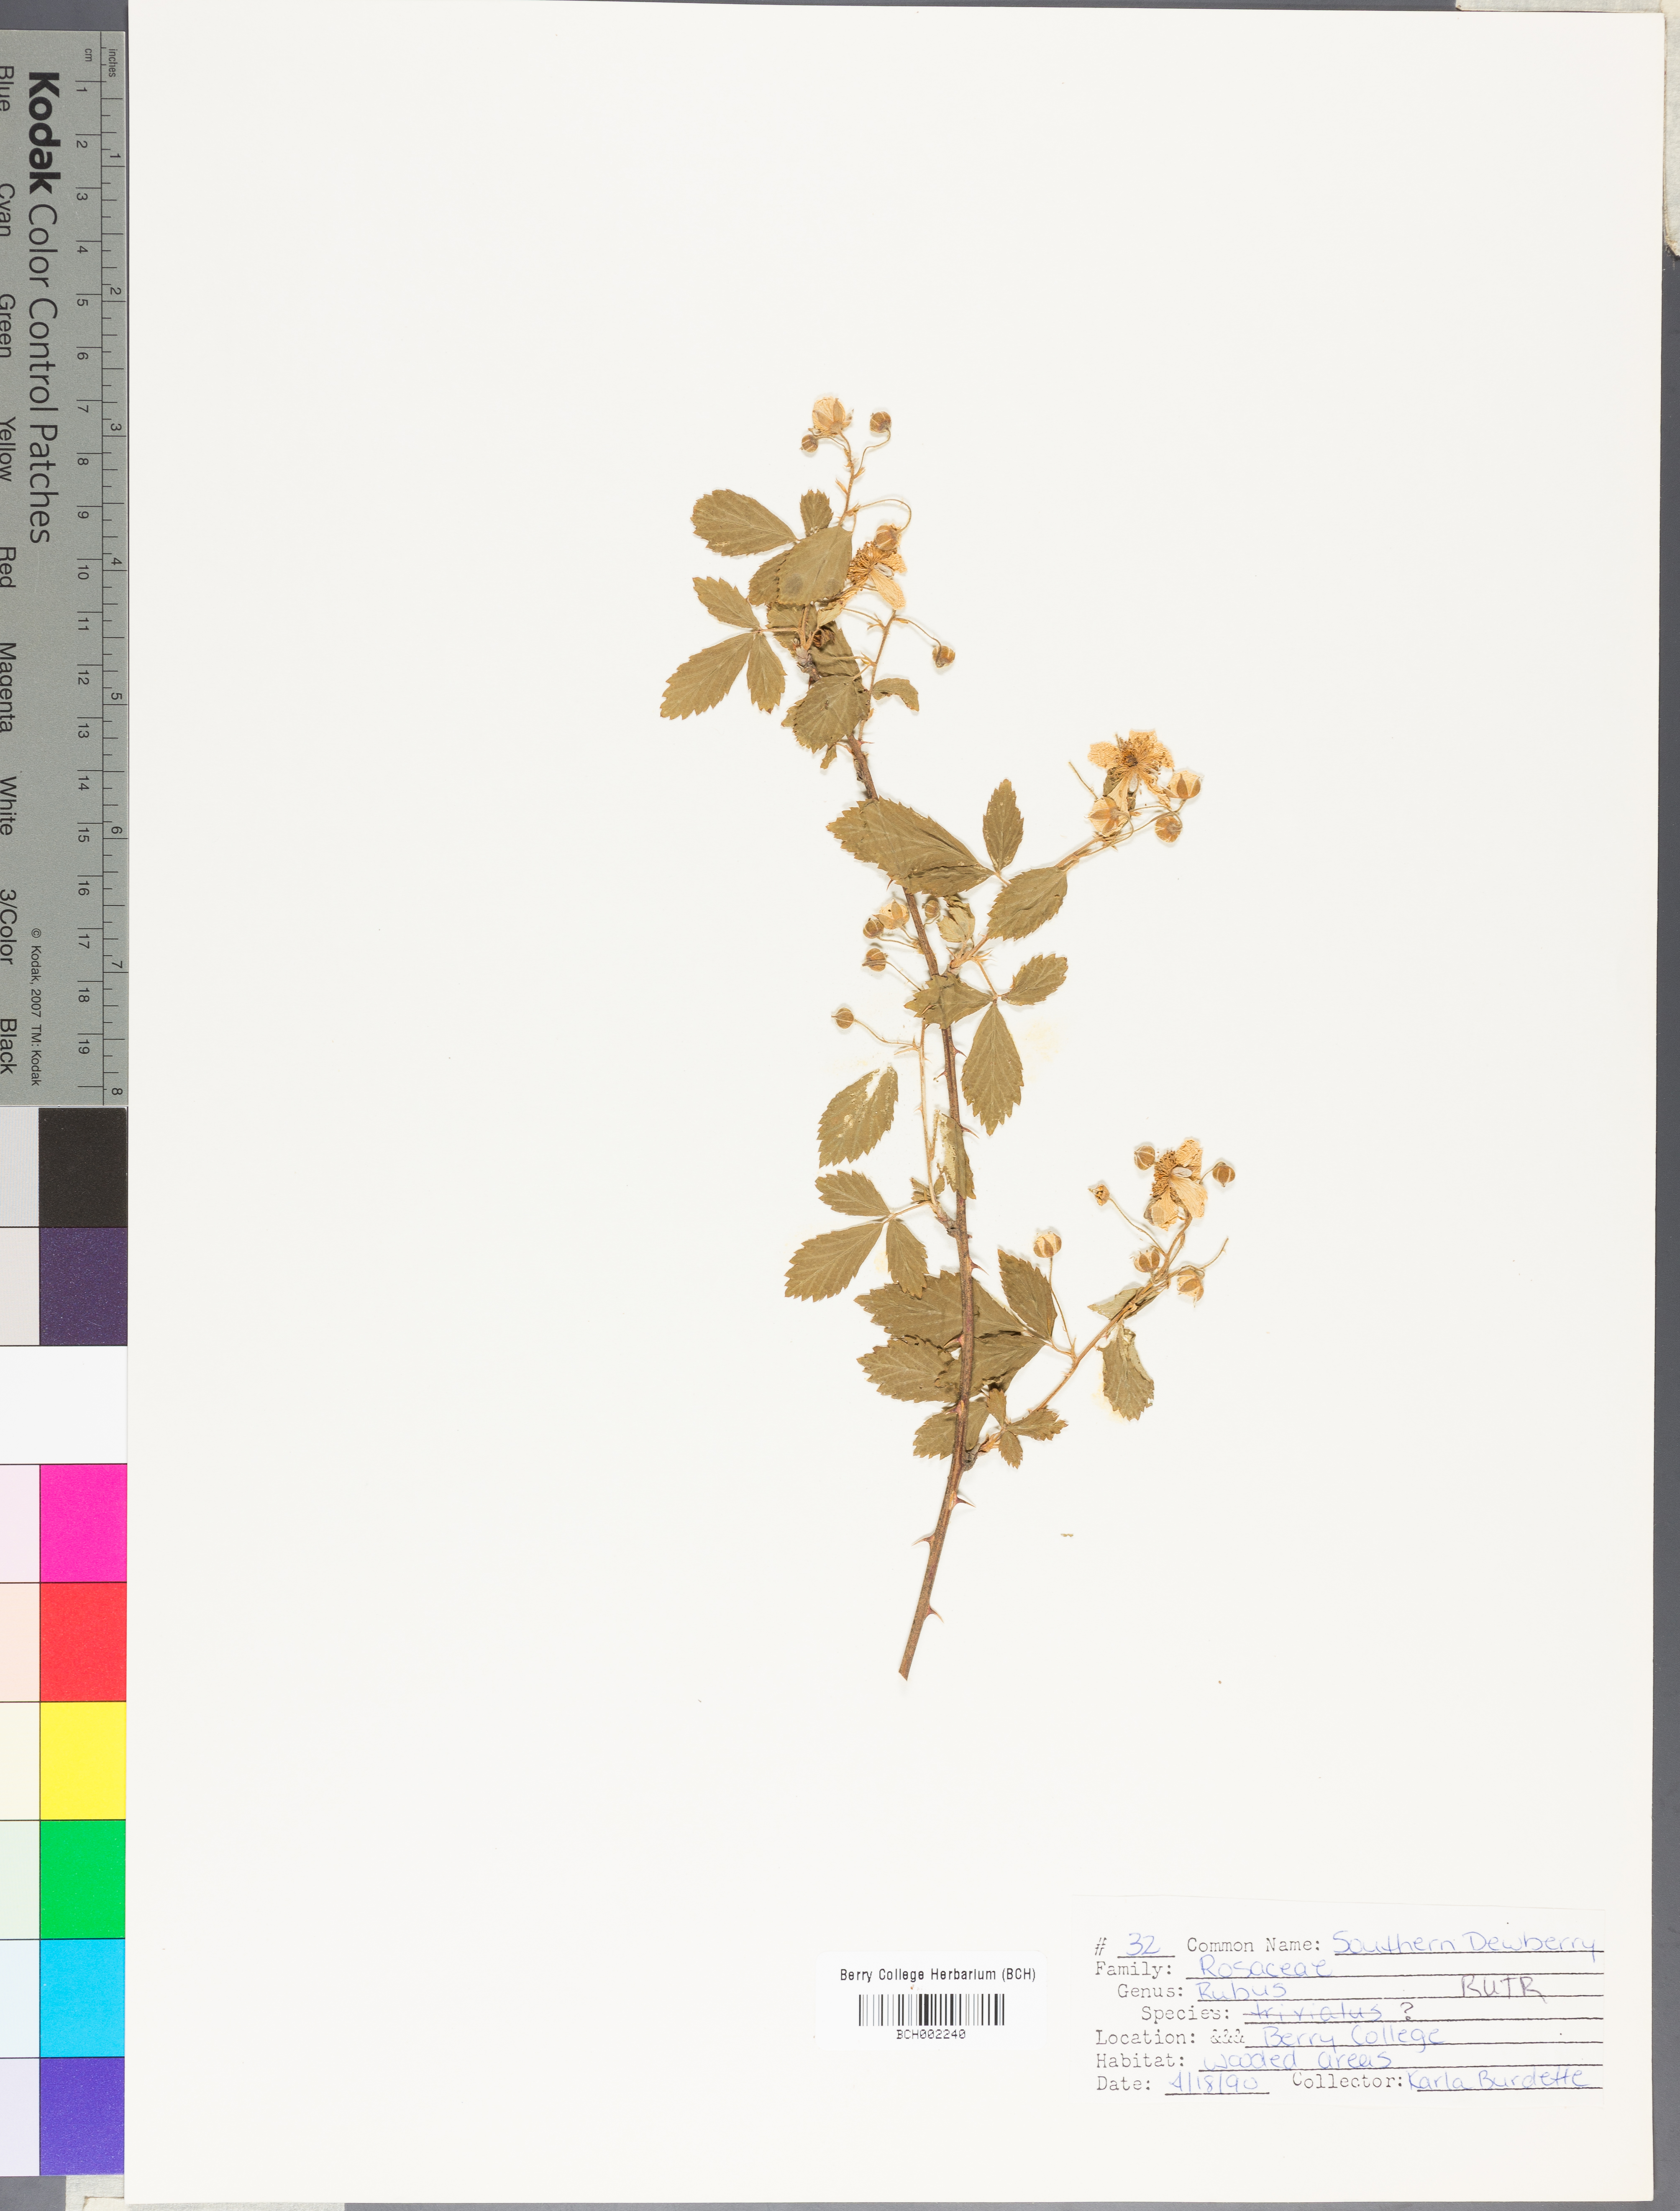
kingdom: Plantae
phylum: Tracheophyta
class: Magnoliopsida
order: Rosales
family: Rosaceae
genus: Rubus
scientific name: Rubus trivialis
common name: Southern dewberry
